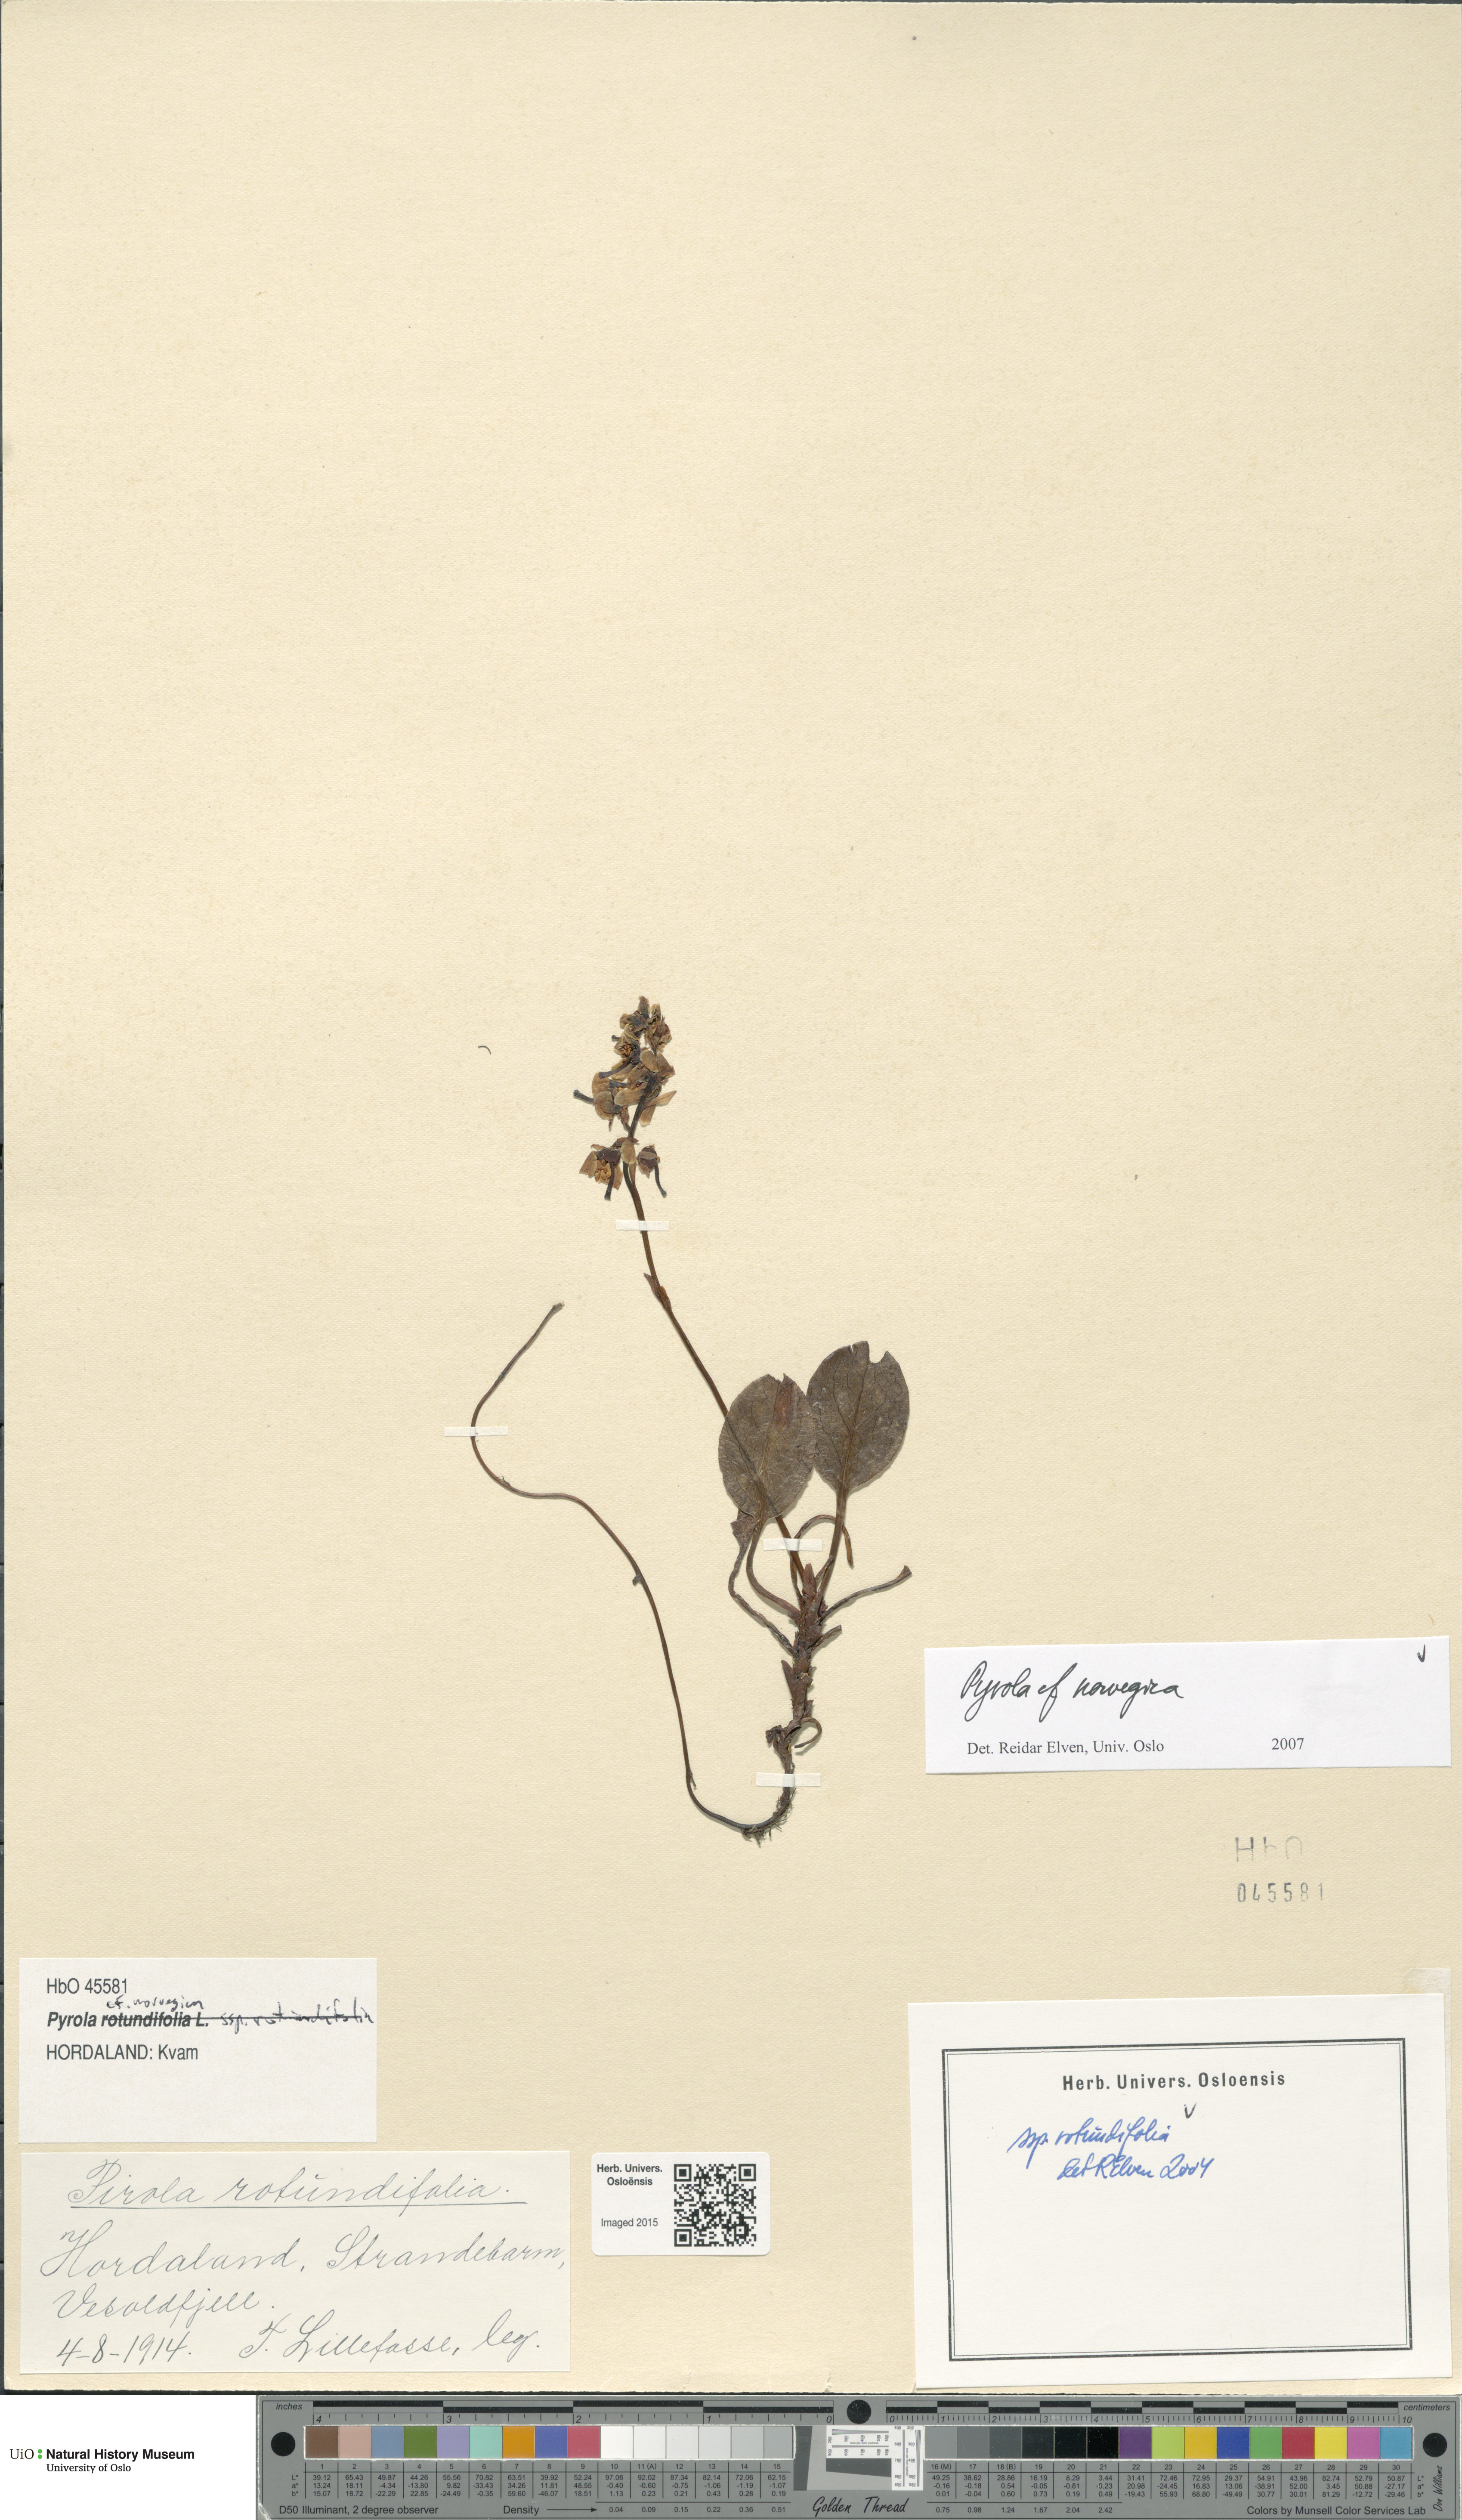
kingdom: Plantae
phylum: Tracheophyta
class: Magnoliopsida
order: Ericales
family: Ericaceae
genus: Pyrola
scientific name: Pyrola rotundifolia
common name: Round-leaved wintergreen
